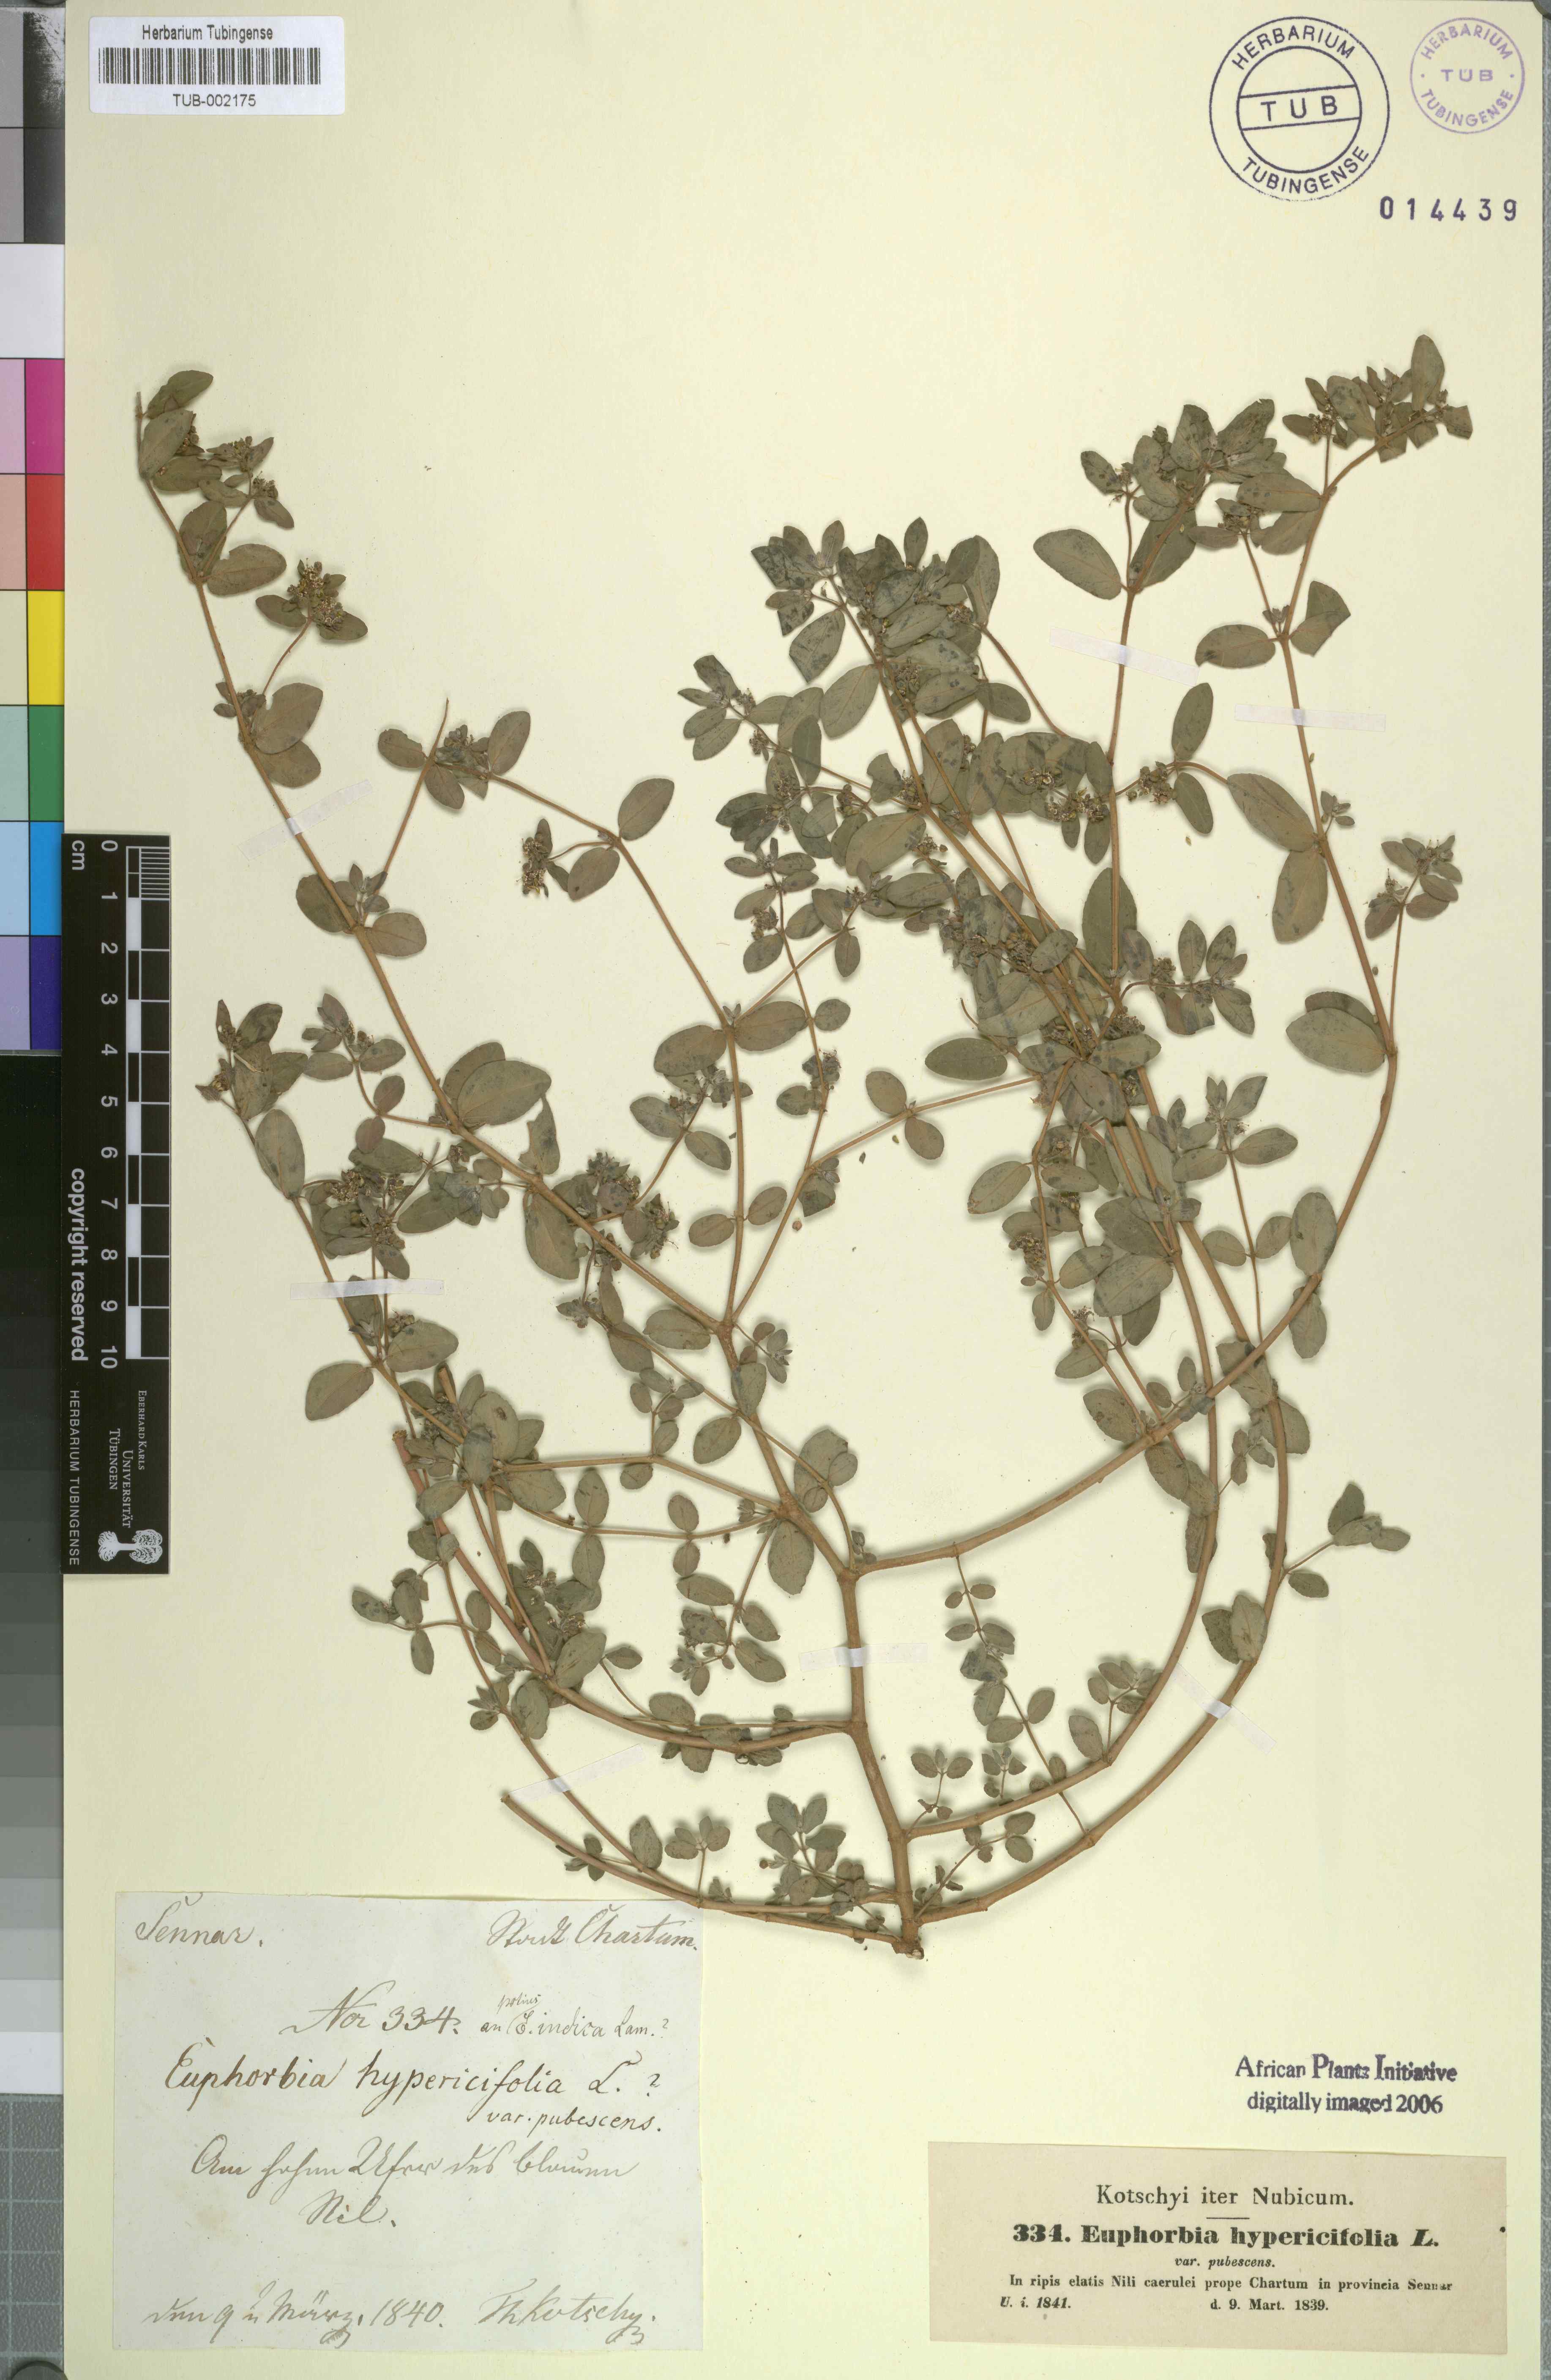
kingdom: Plantae
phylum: Tracheophyta
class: Magnoliopsida
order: Malpighiales
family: Euphorbiaceae
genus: Euphorbia
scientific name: Euphorbia indica
